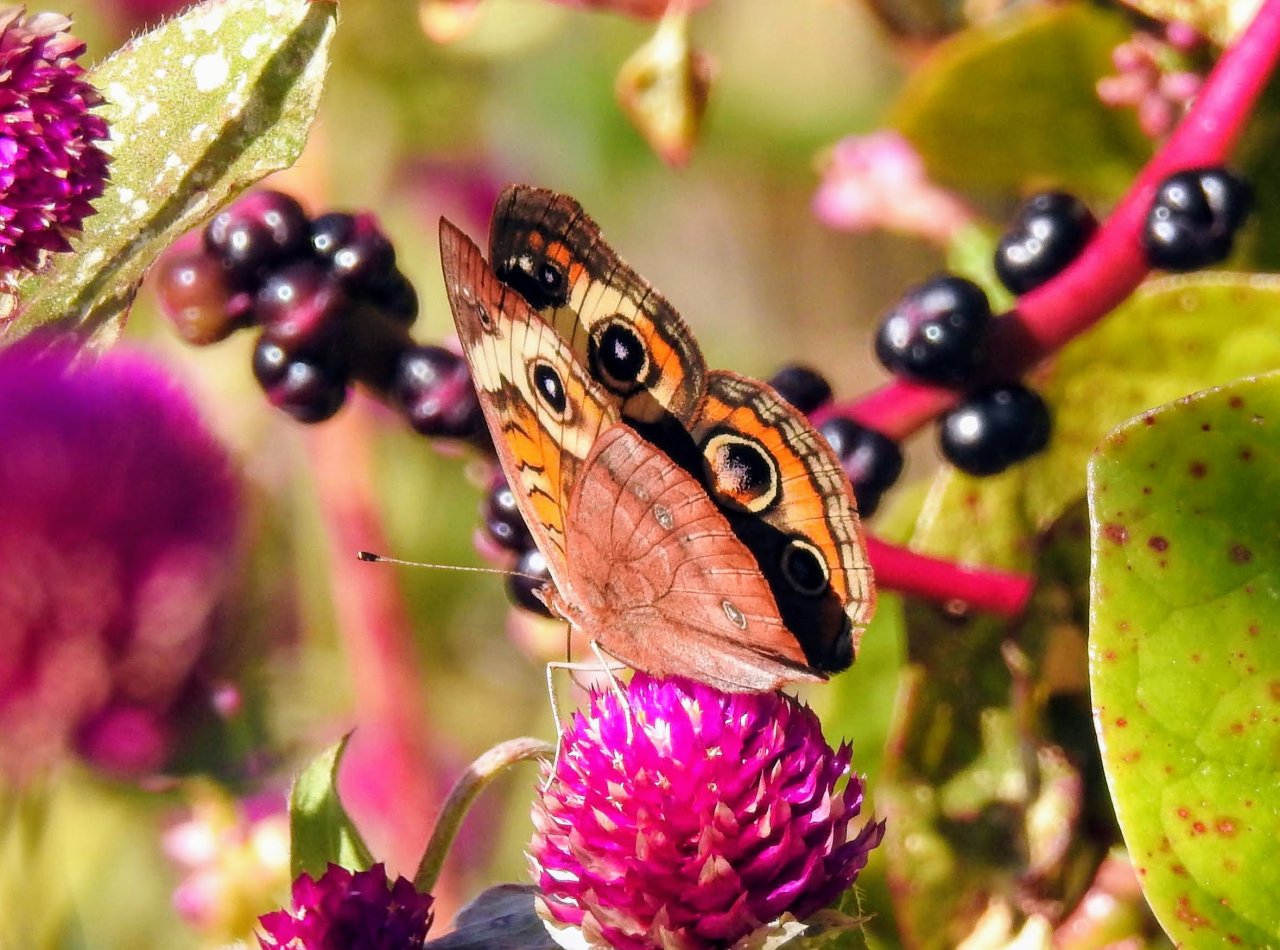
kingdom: Animalia
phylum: Arthropoda
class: Insecta
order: Lepidoptera
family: Nymphalidae
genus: Junonia
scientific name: Junonia coenia
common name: Common Buckeye
